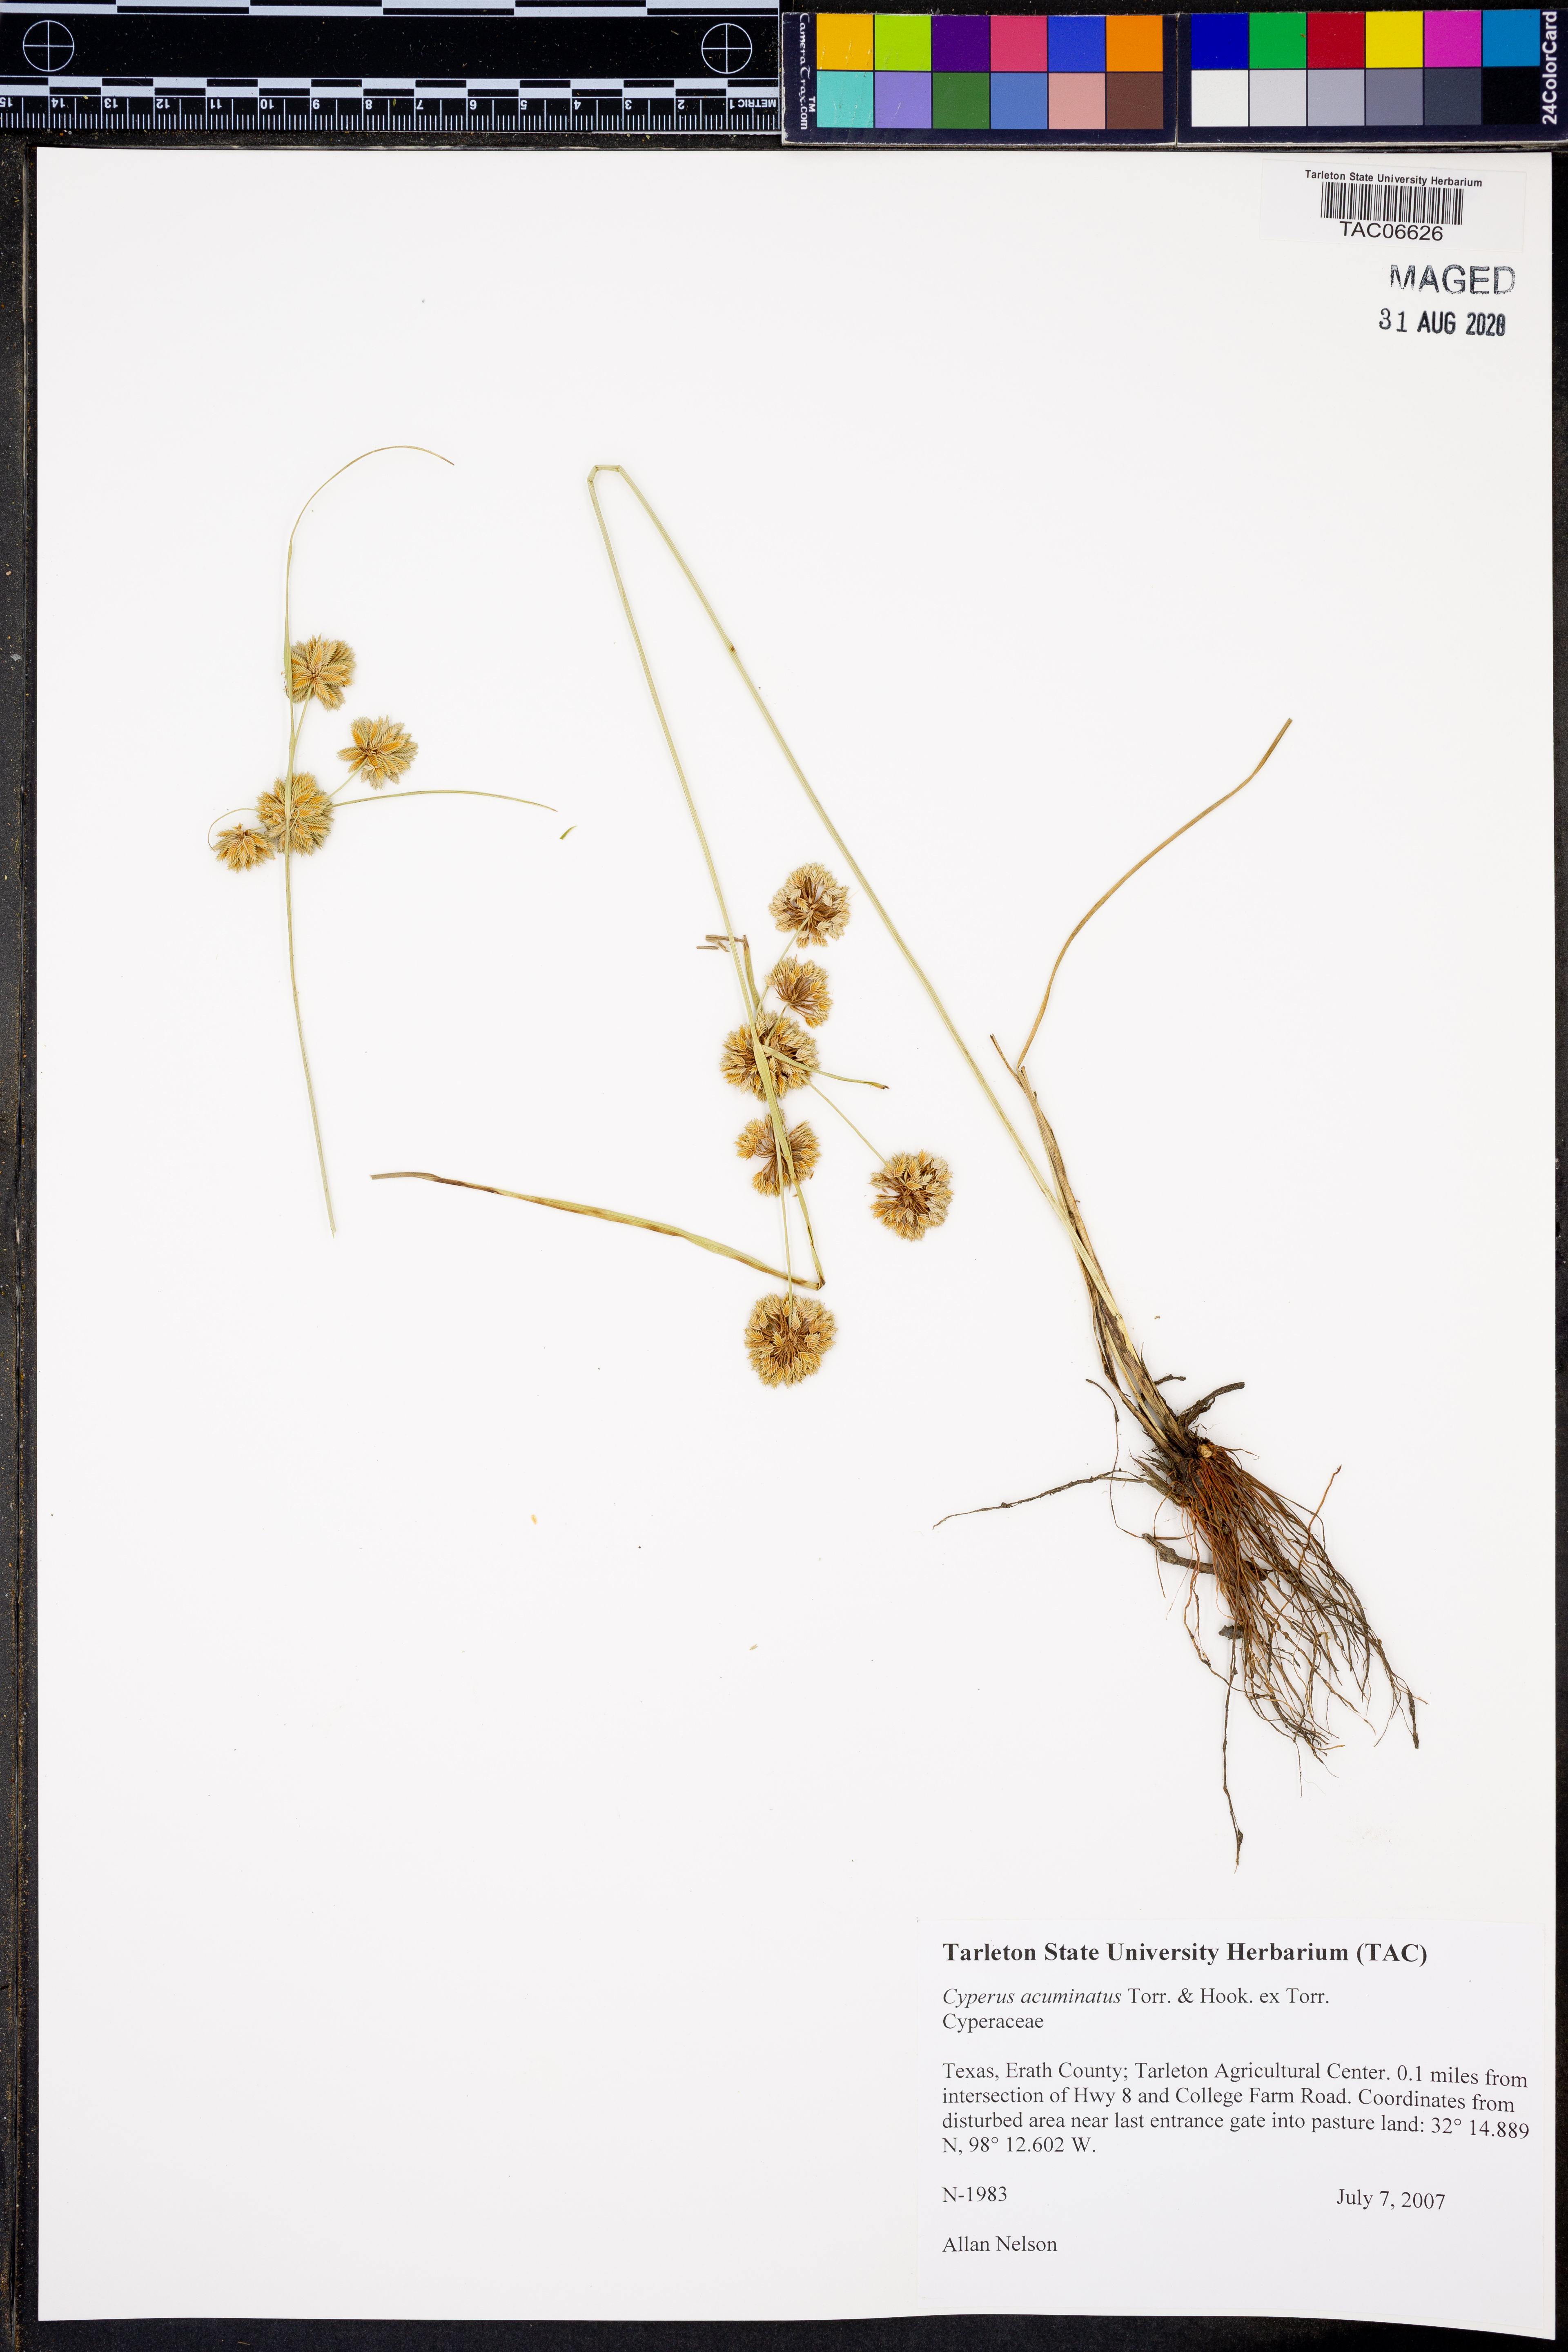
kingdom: Plantae
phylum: Tracheophyta
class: Liliopsida
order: Poales
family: Cyperaceae
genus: Cyperus
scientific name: Cyperus acuminatus
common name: Short-pointed cyperus
